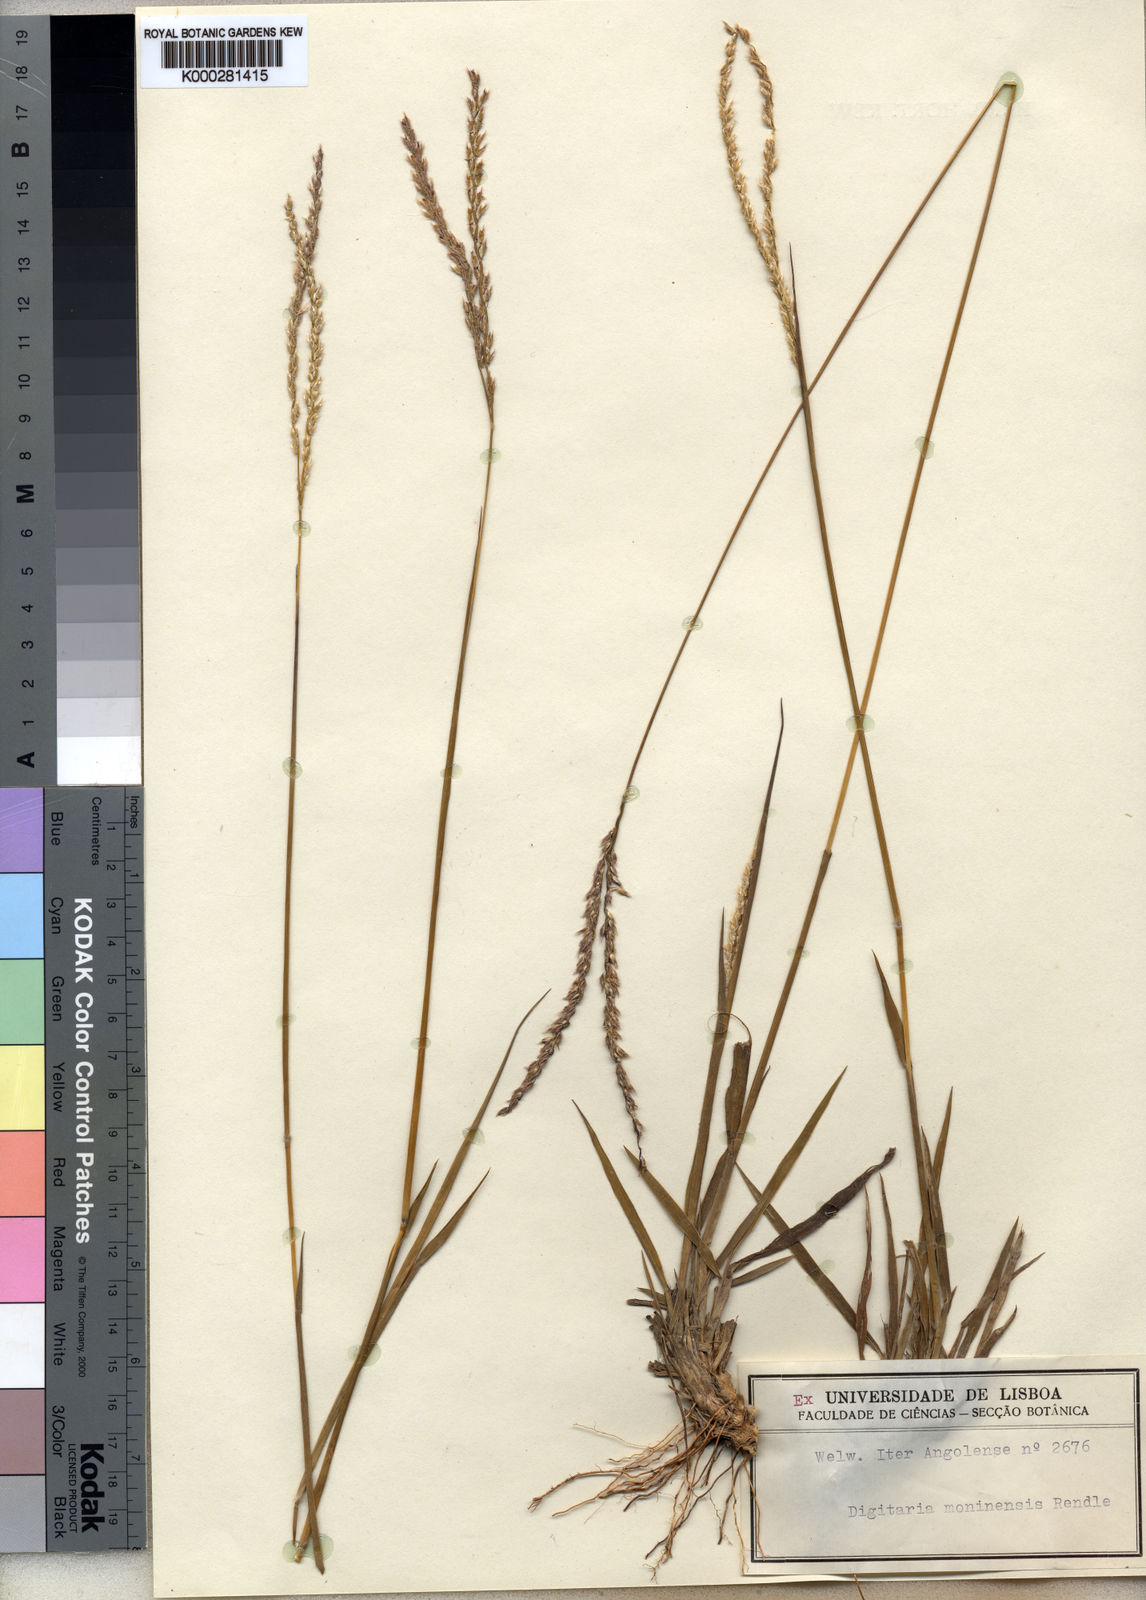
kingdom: Plantae
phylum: Tracheophyta
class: Liliopsida
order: Poales
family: Poaceae
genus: Digitaria
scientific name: Digitaria brazzae
